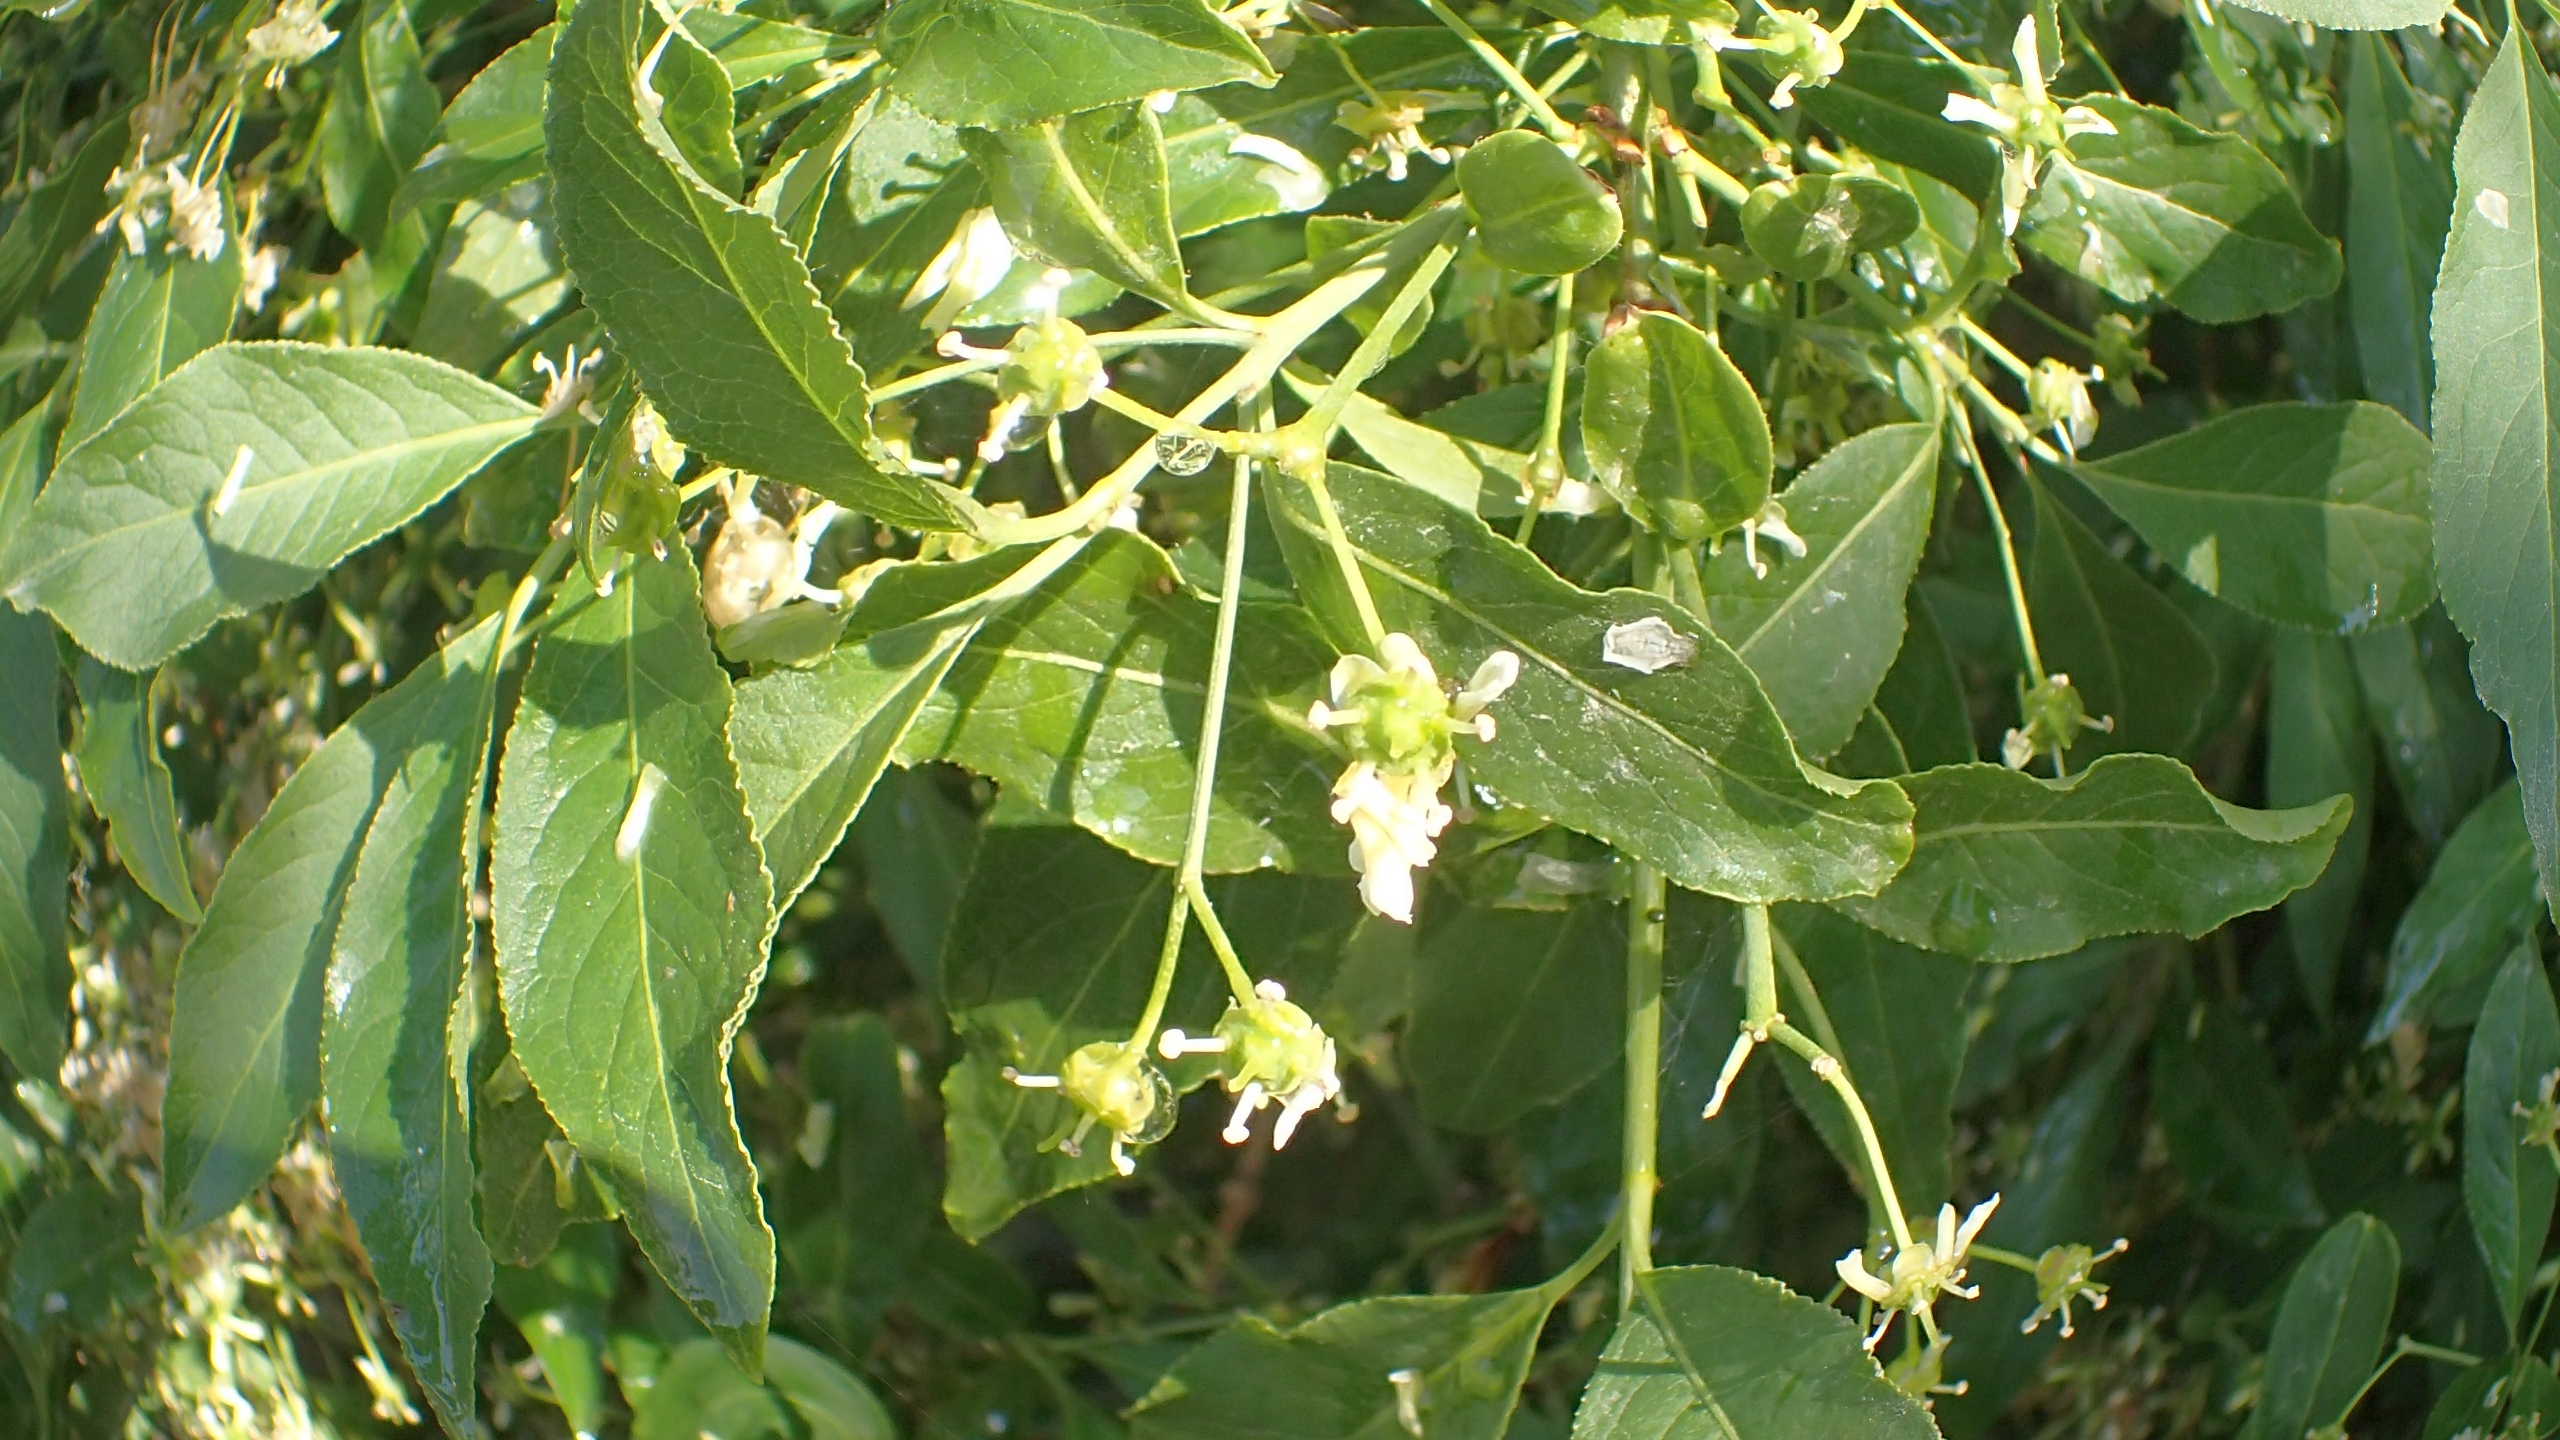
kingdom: Plantae
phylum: Tracheophyta
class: Magnoliopsida
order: Celastrales
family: Celastraceae
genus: Euonymus
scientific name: Euonymus europaeus
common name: Benved
